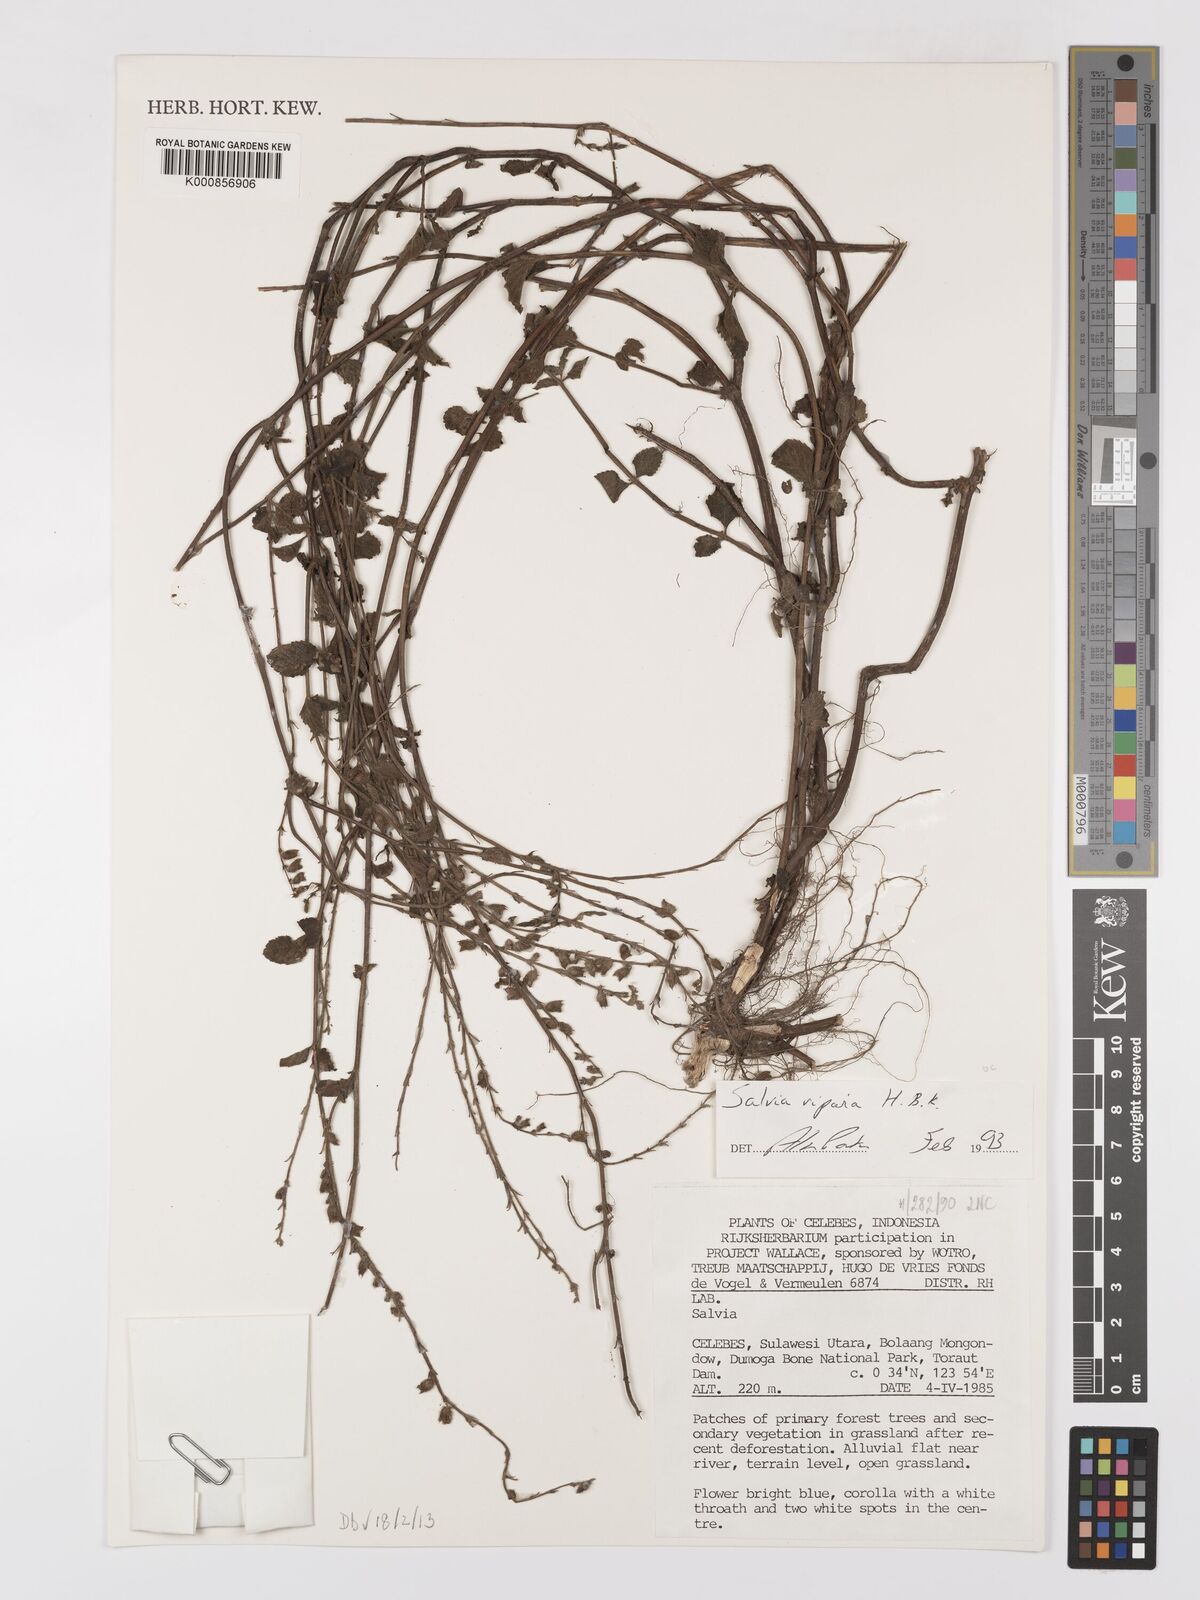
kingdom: Plantae
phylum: Tracheophyta
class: Magnoliopsida
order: Lamiales
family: Lamiaceae
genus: Salvia
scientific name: Salvia misella
